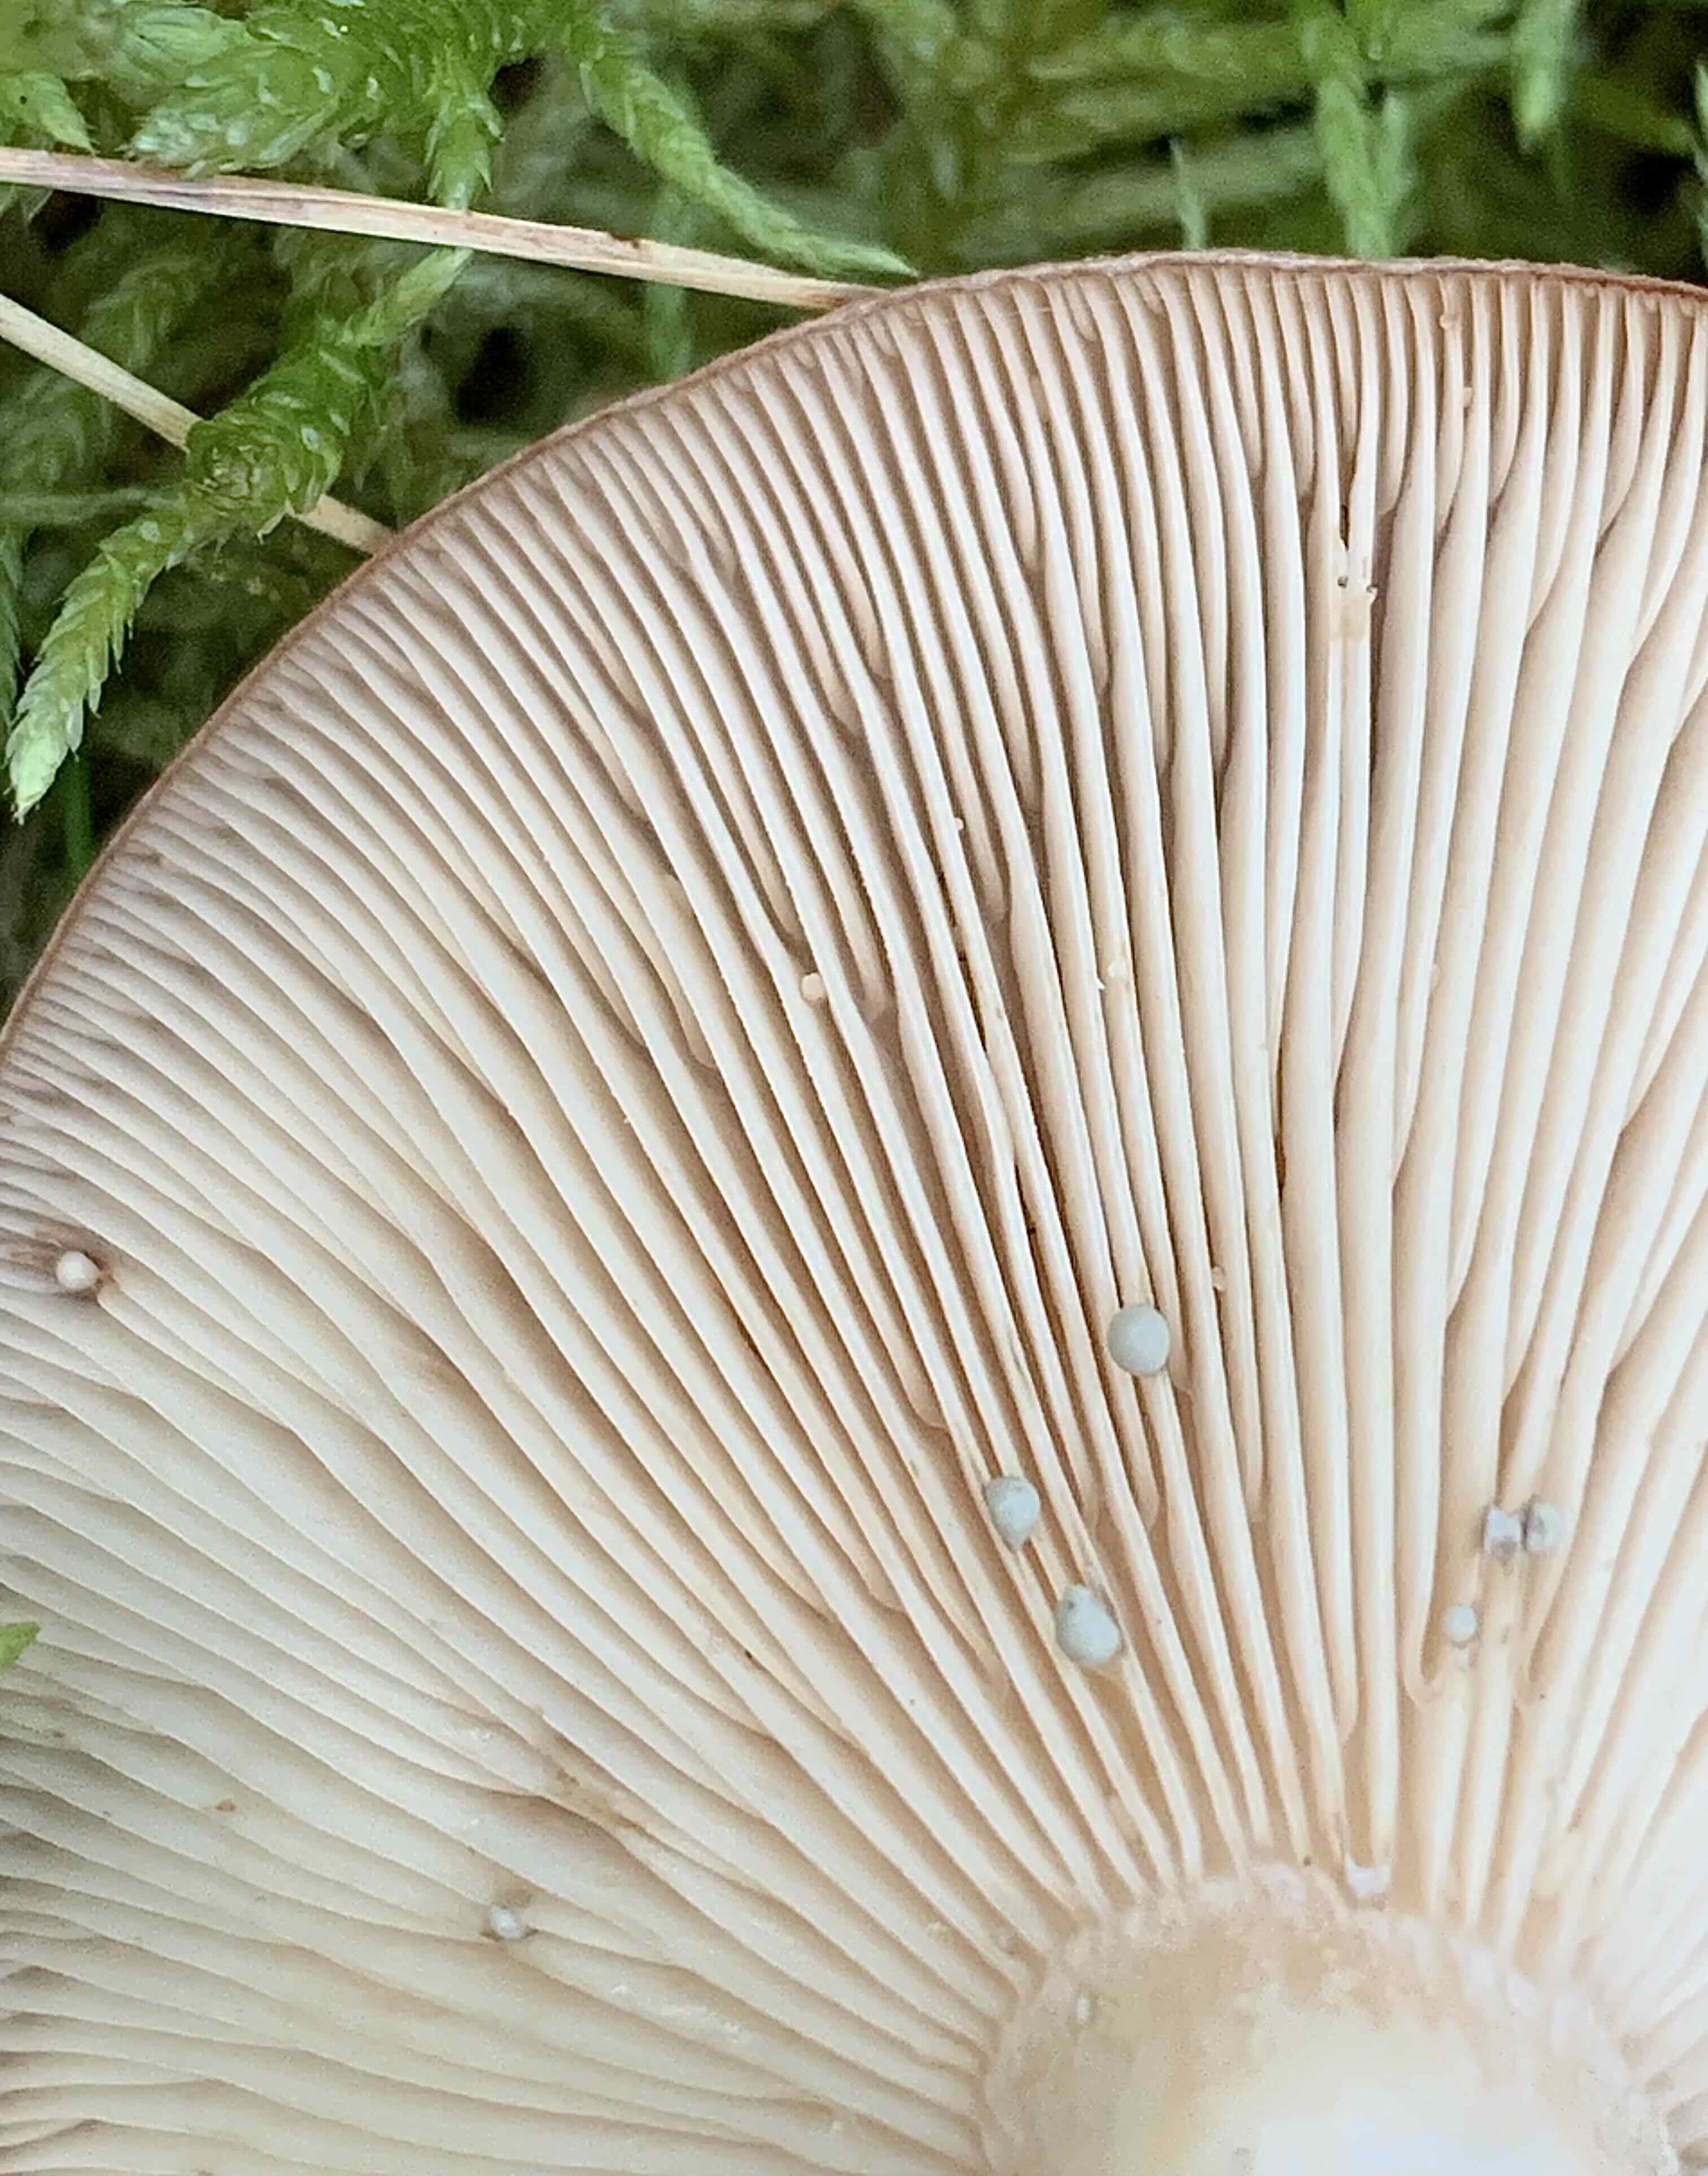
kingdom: Fungi
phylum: Basidiomycota
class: Agaricomycetes
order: Russulales
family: Russulaceae
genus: Lactarius
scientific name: Lactarius vietus
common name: violetgrå mælkehat
